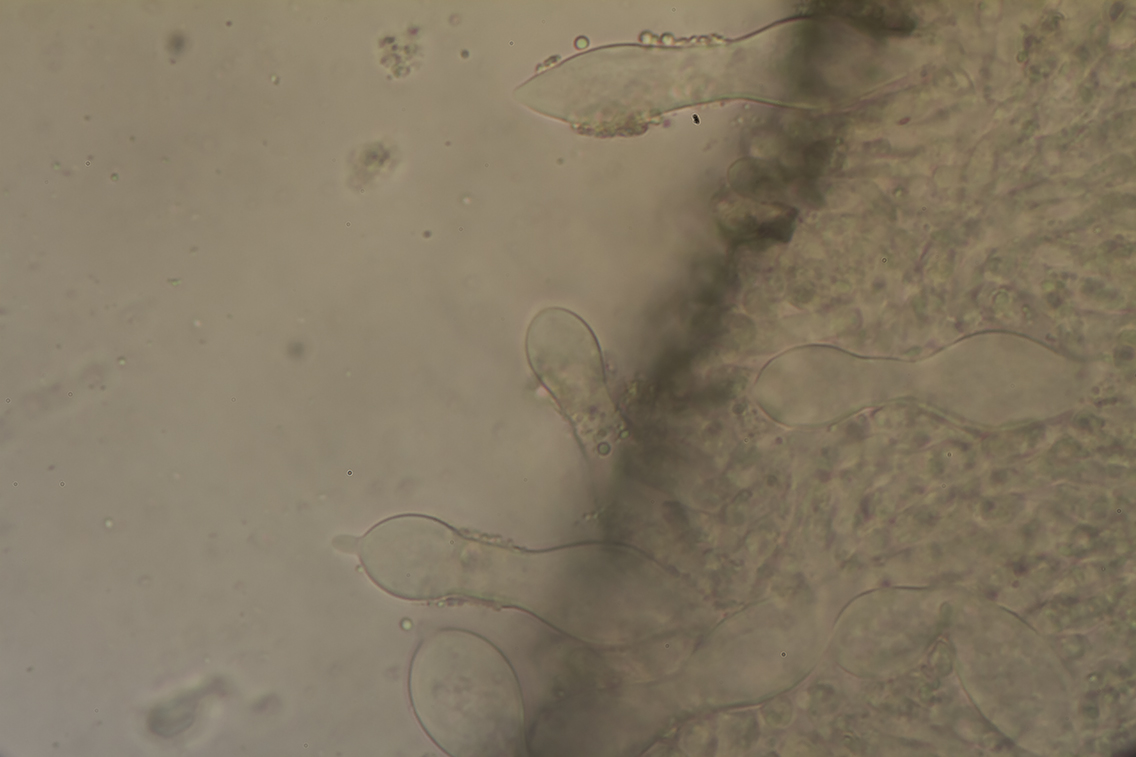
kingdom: Fungi
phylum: Basidiomycota
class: Agaricomycetes
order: Agaricales
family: Tricholomataceae
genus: Mycenella
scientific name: Mycenella trachyspora
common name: rødprikket dughat
